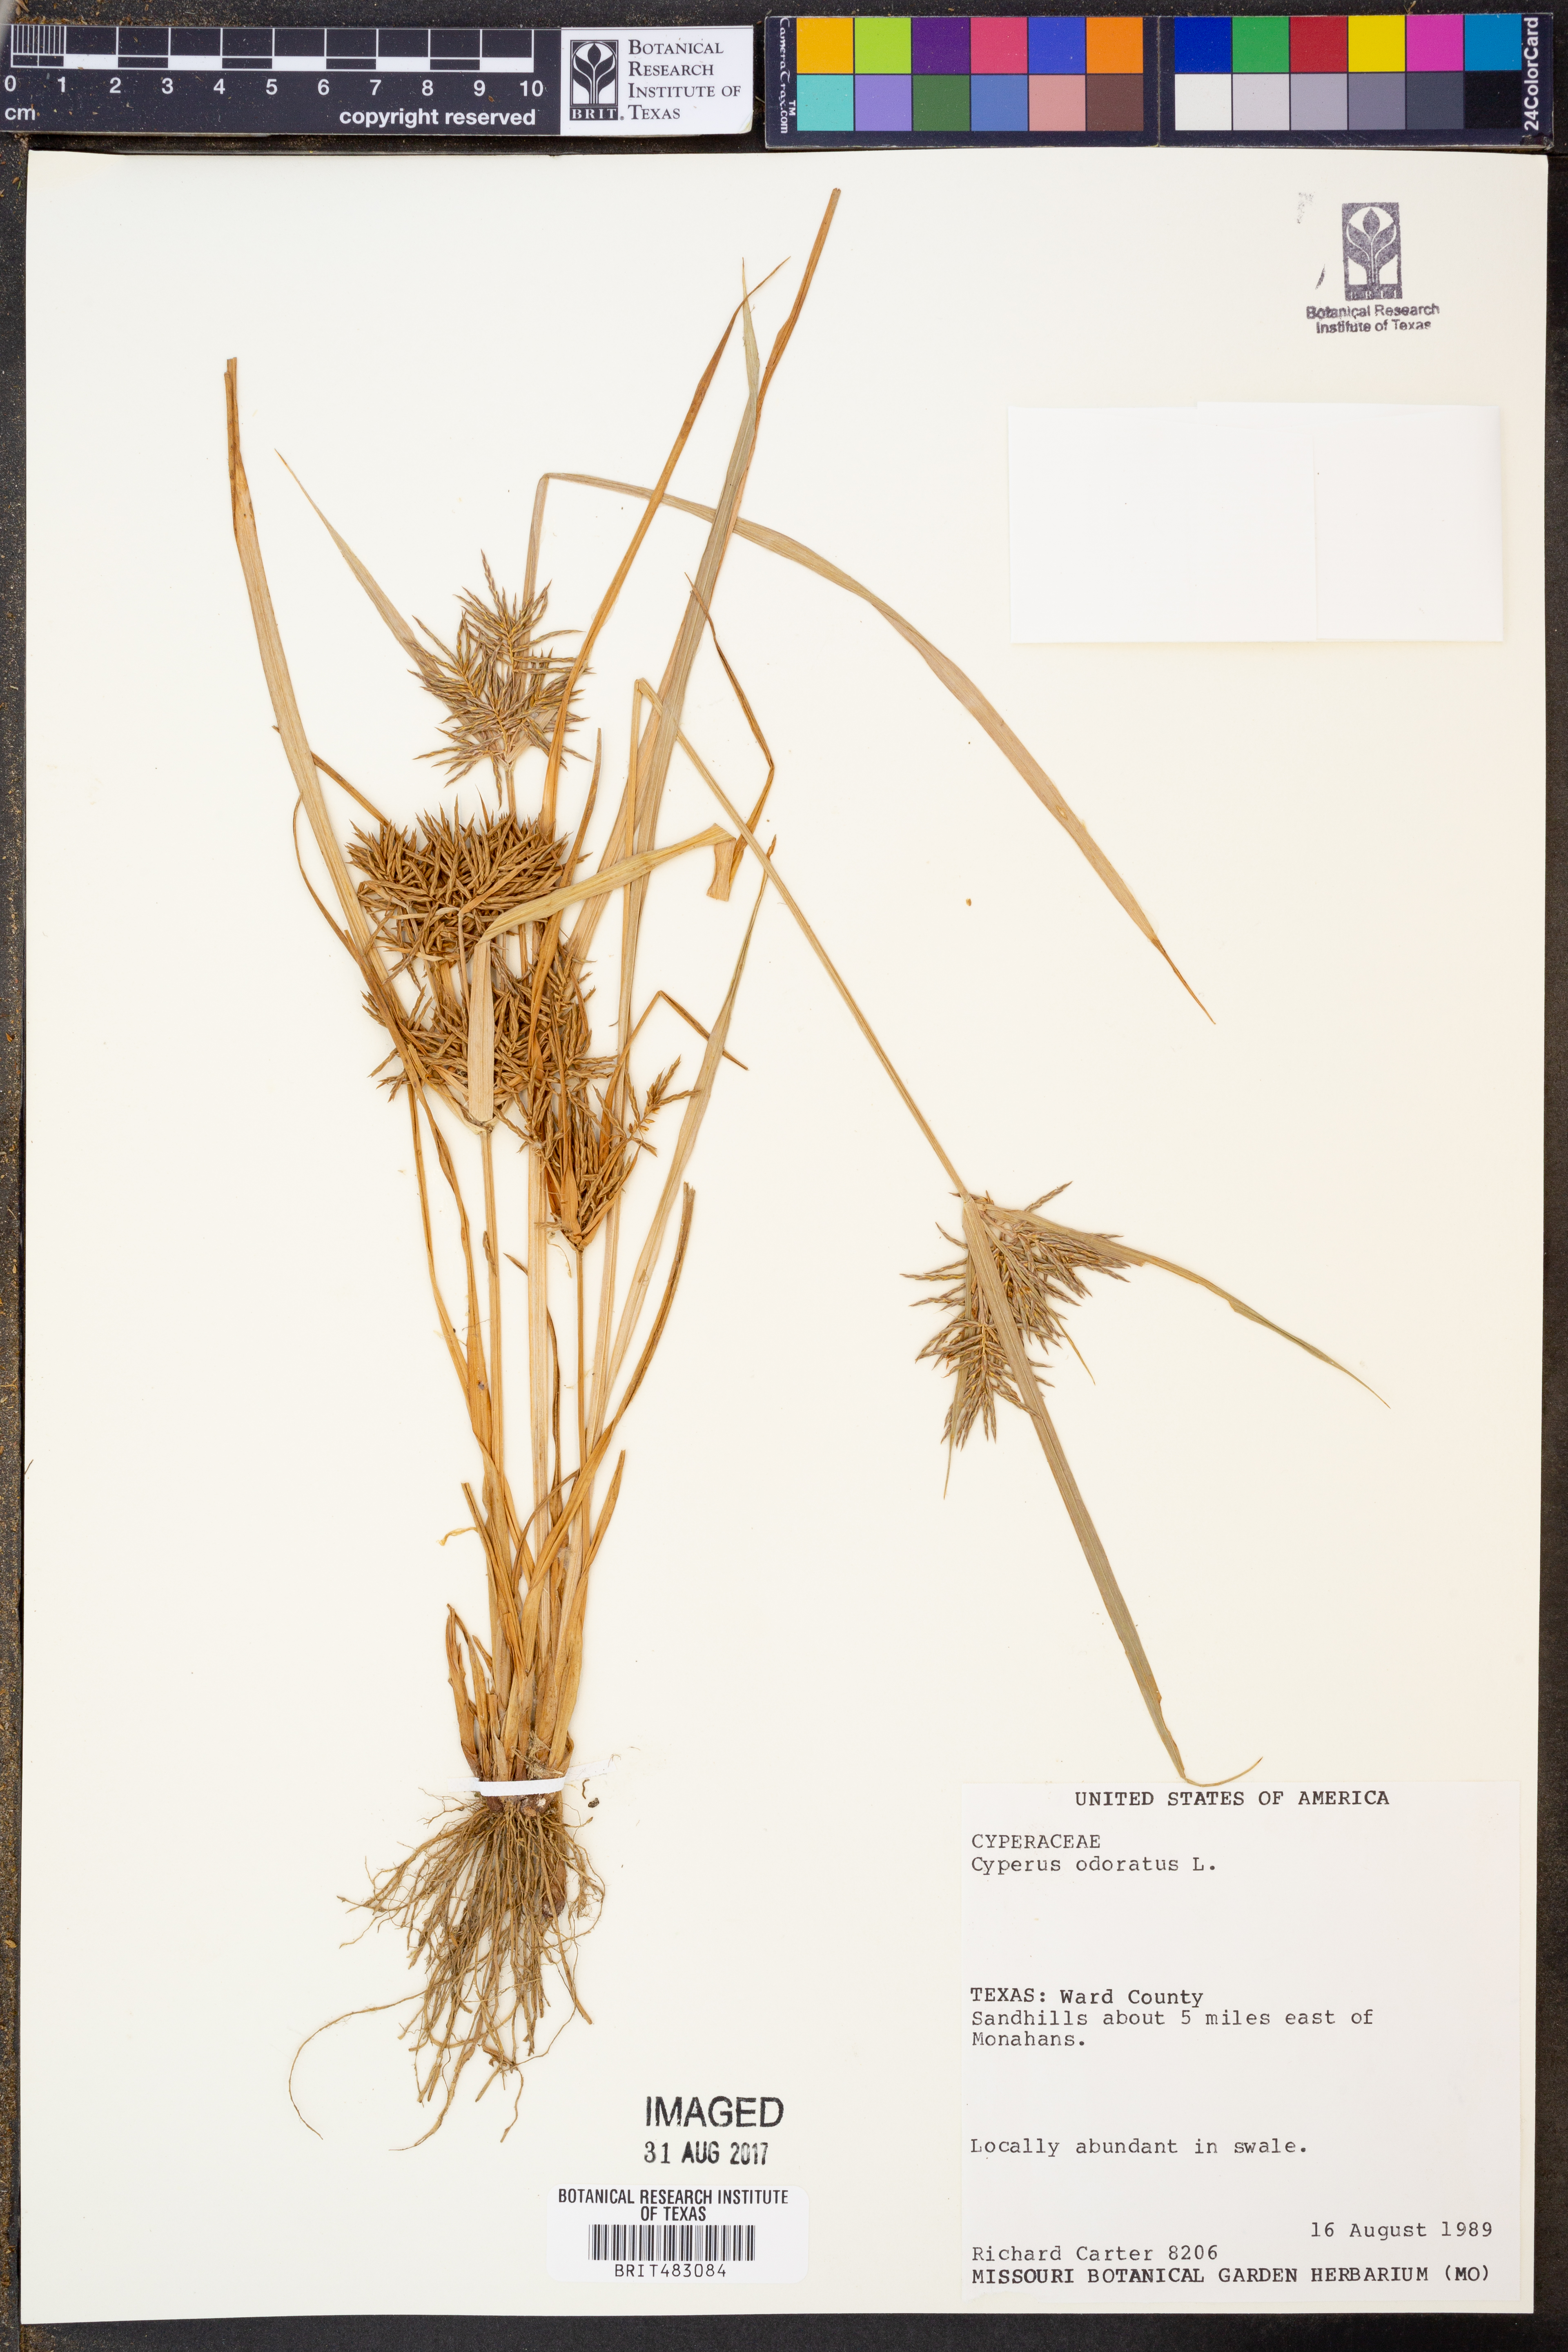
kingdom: Plantae
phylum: Tracheophyta
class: Liliopsida
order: Poales
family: Cyperaceae
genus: Cyperus
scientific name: Cyperus odoratus
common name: Fragrant flatsedge
